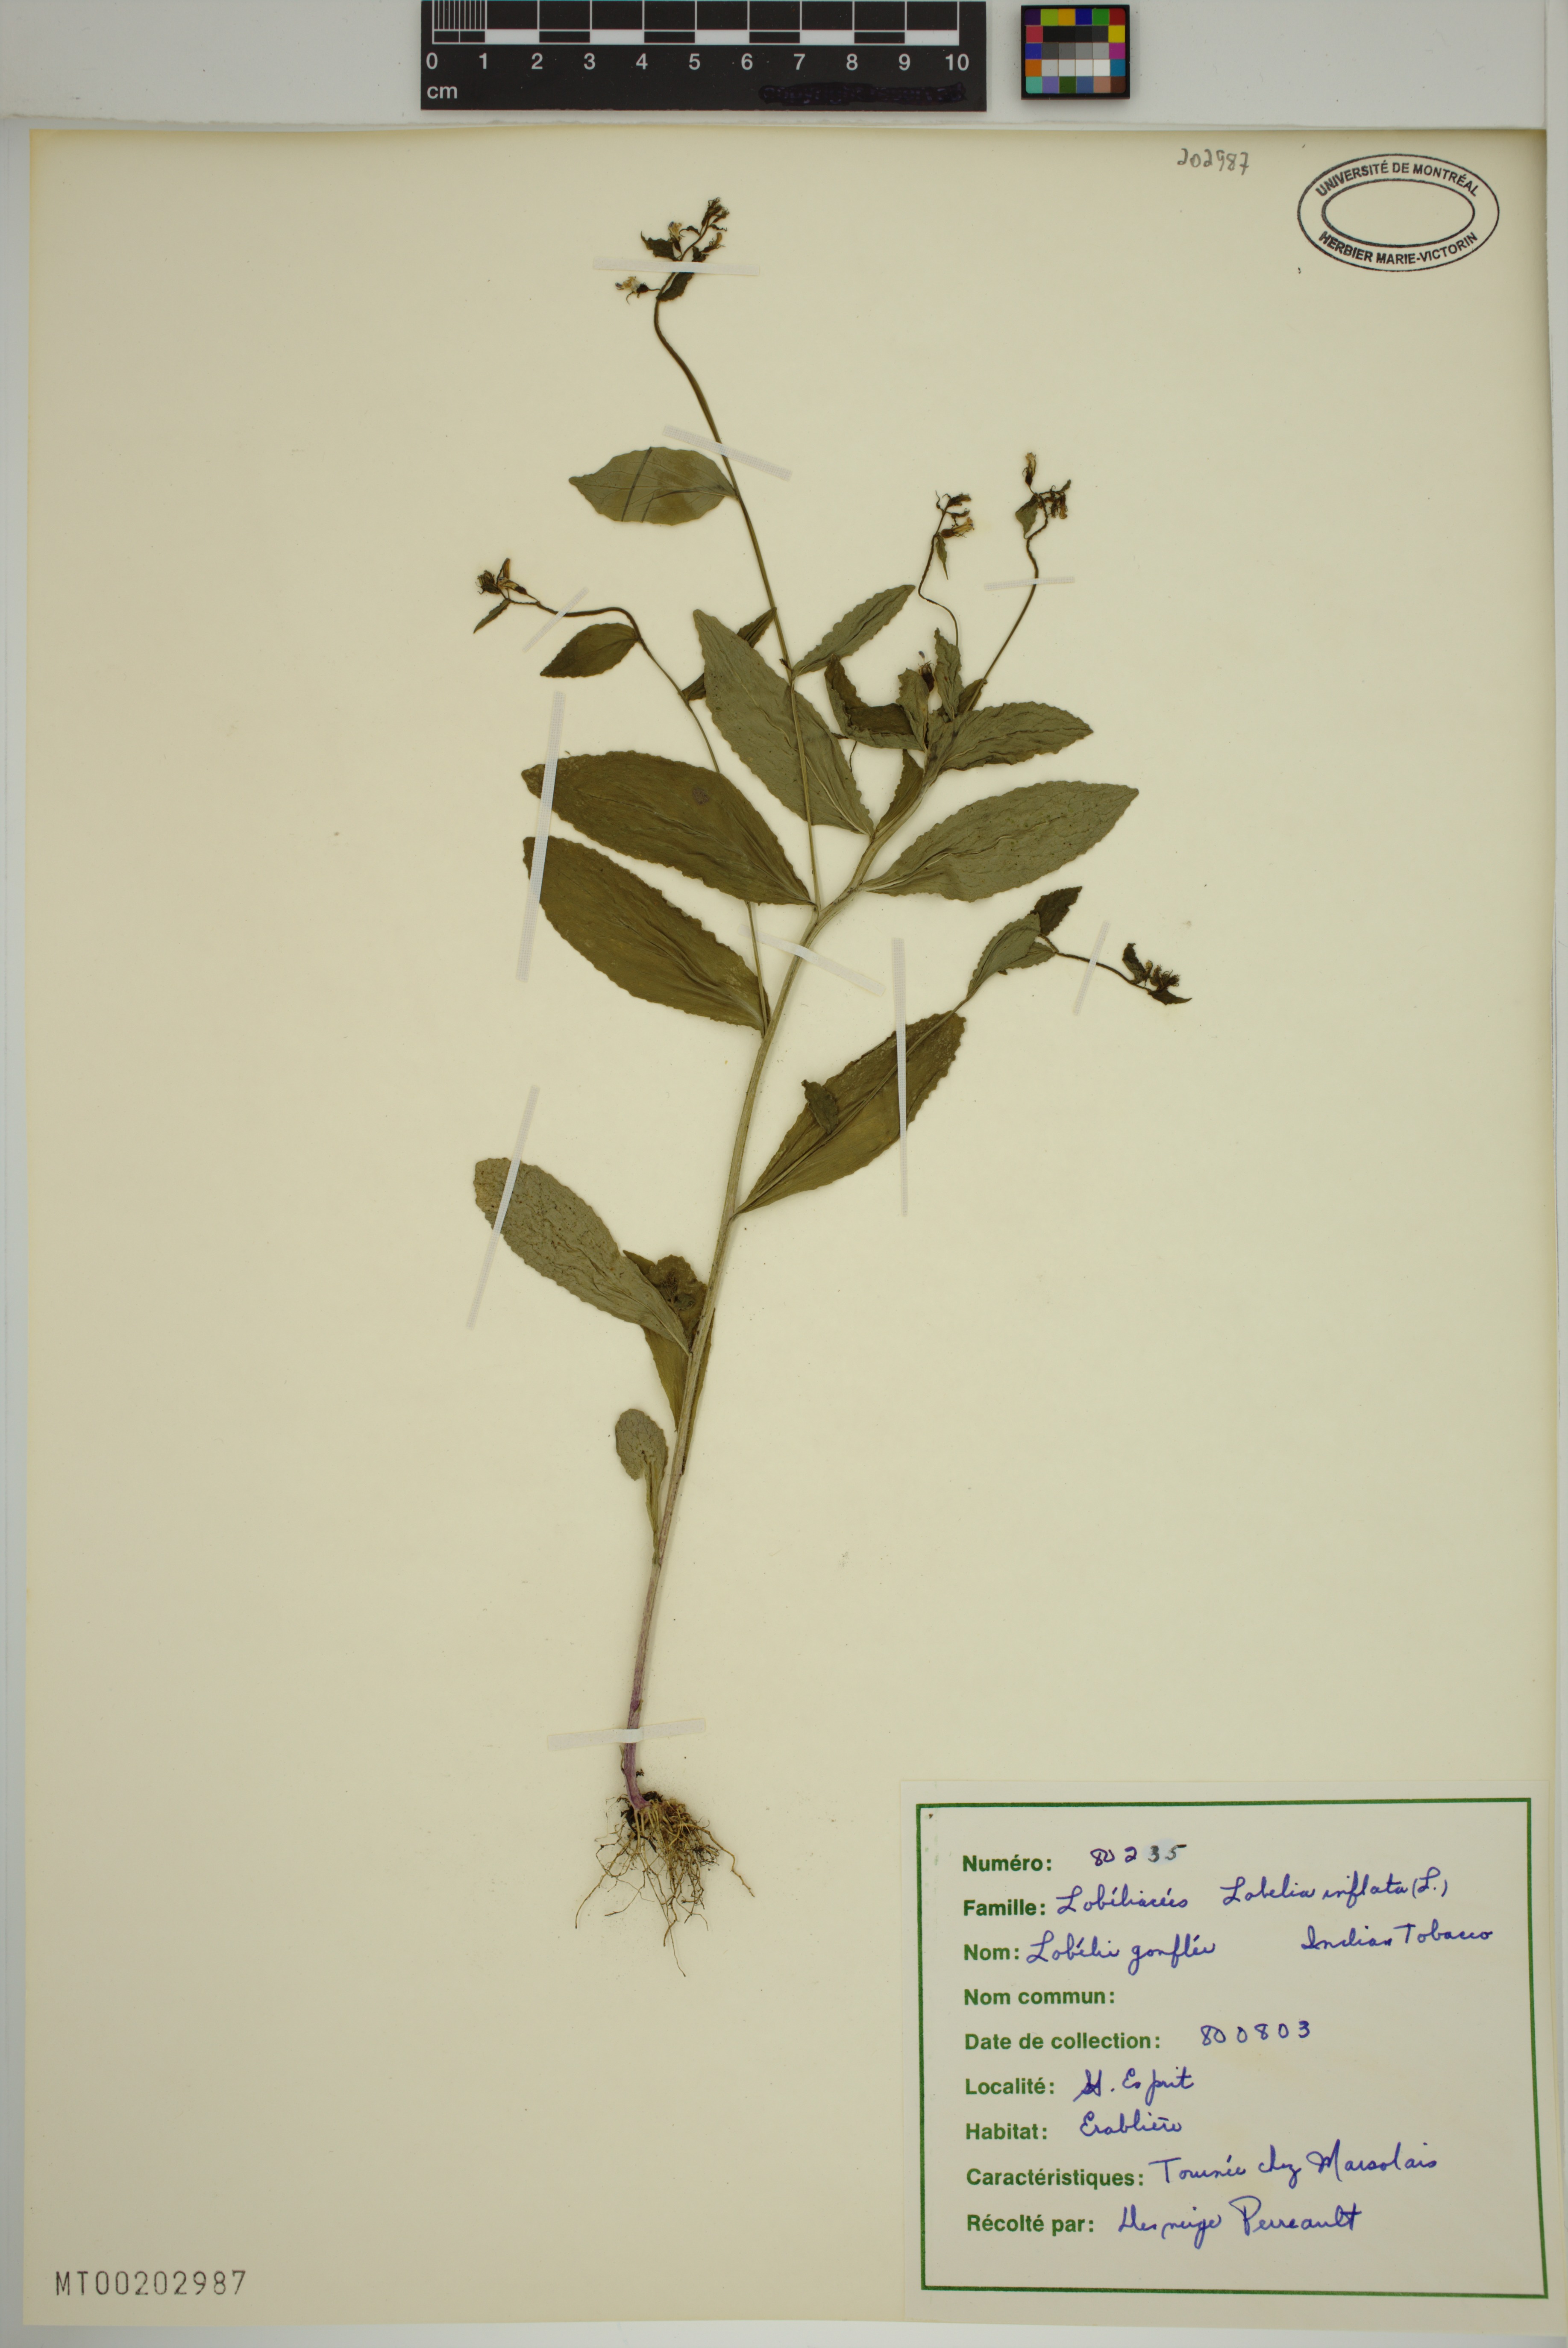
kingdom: Plantae
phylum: Tracheophyta
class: Magnoliopsida
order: Asterales
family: Campanulaceae
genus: Lobelia
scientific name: Lobelia inflata
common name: Indian tobacco
